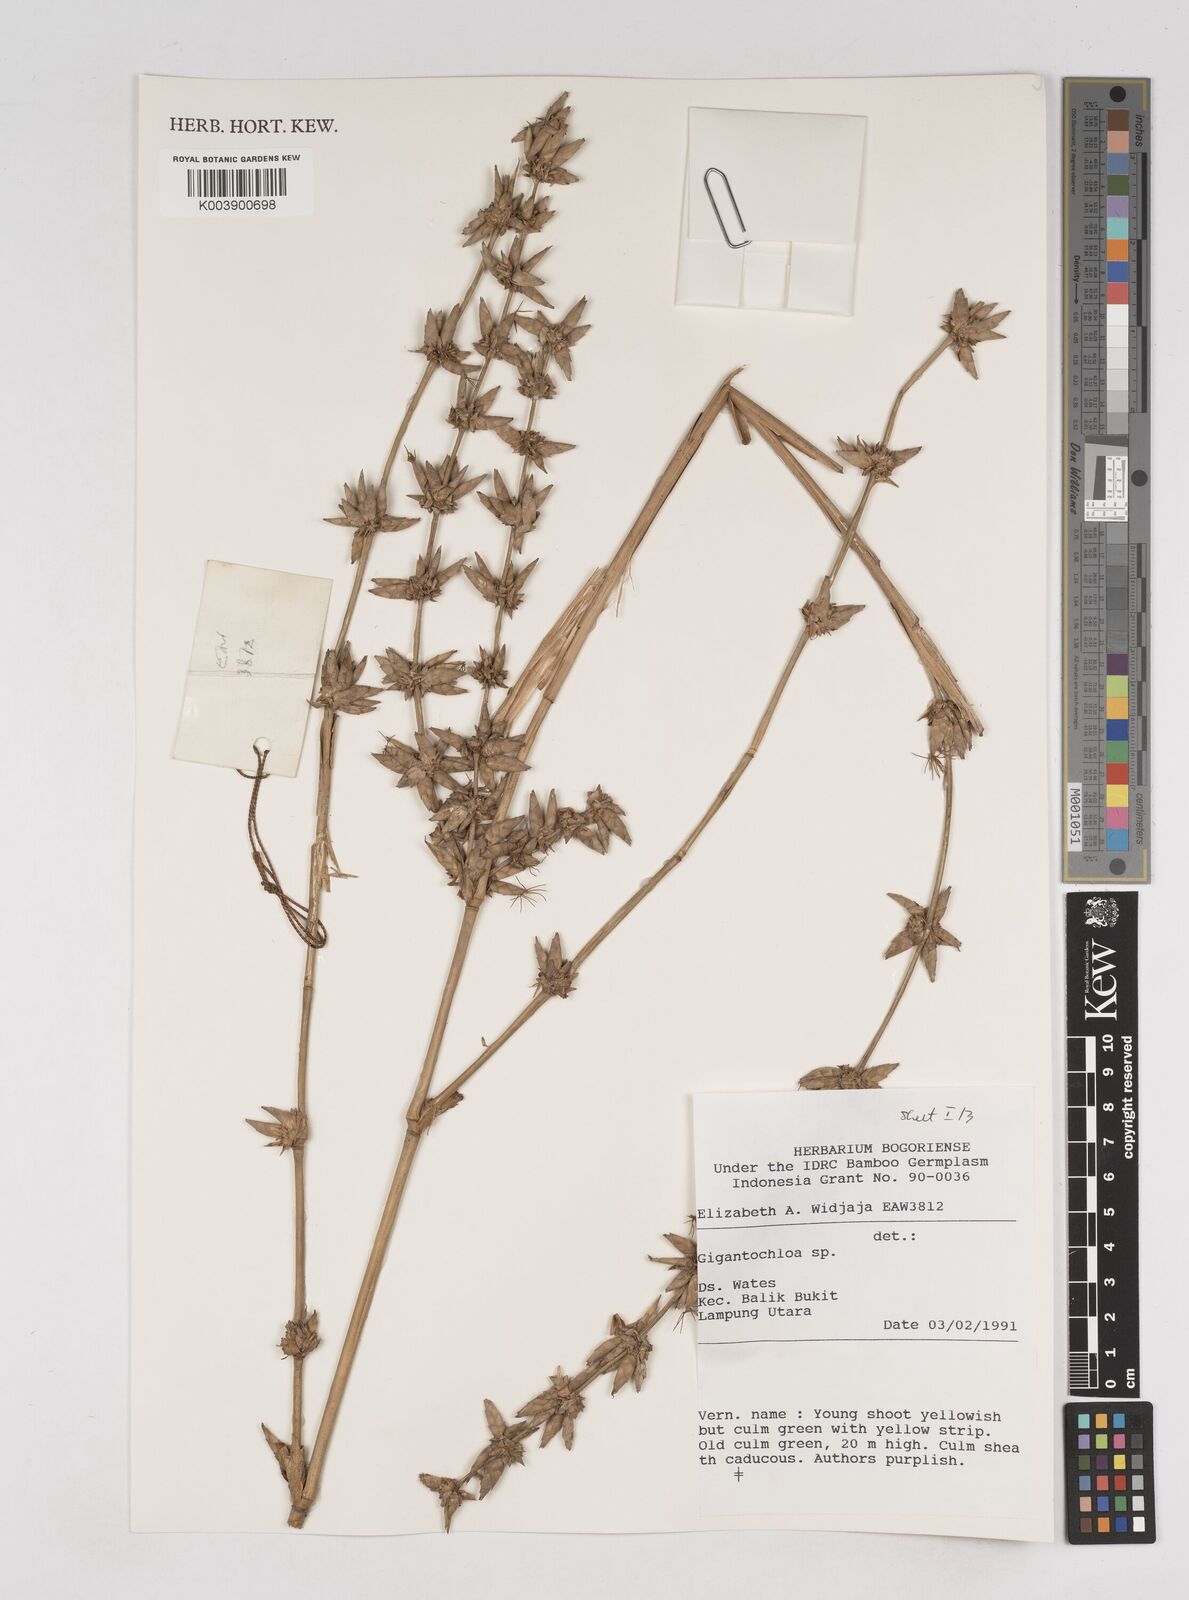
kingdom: Plantae
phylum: Tracheophyta
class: Liliopsida
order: Poales
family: Poaceae
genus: Gigantochloa
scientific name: Gigantochloa
